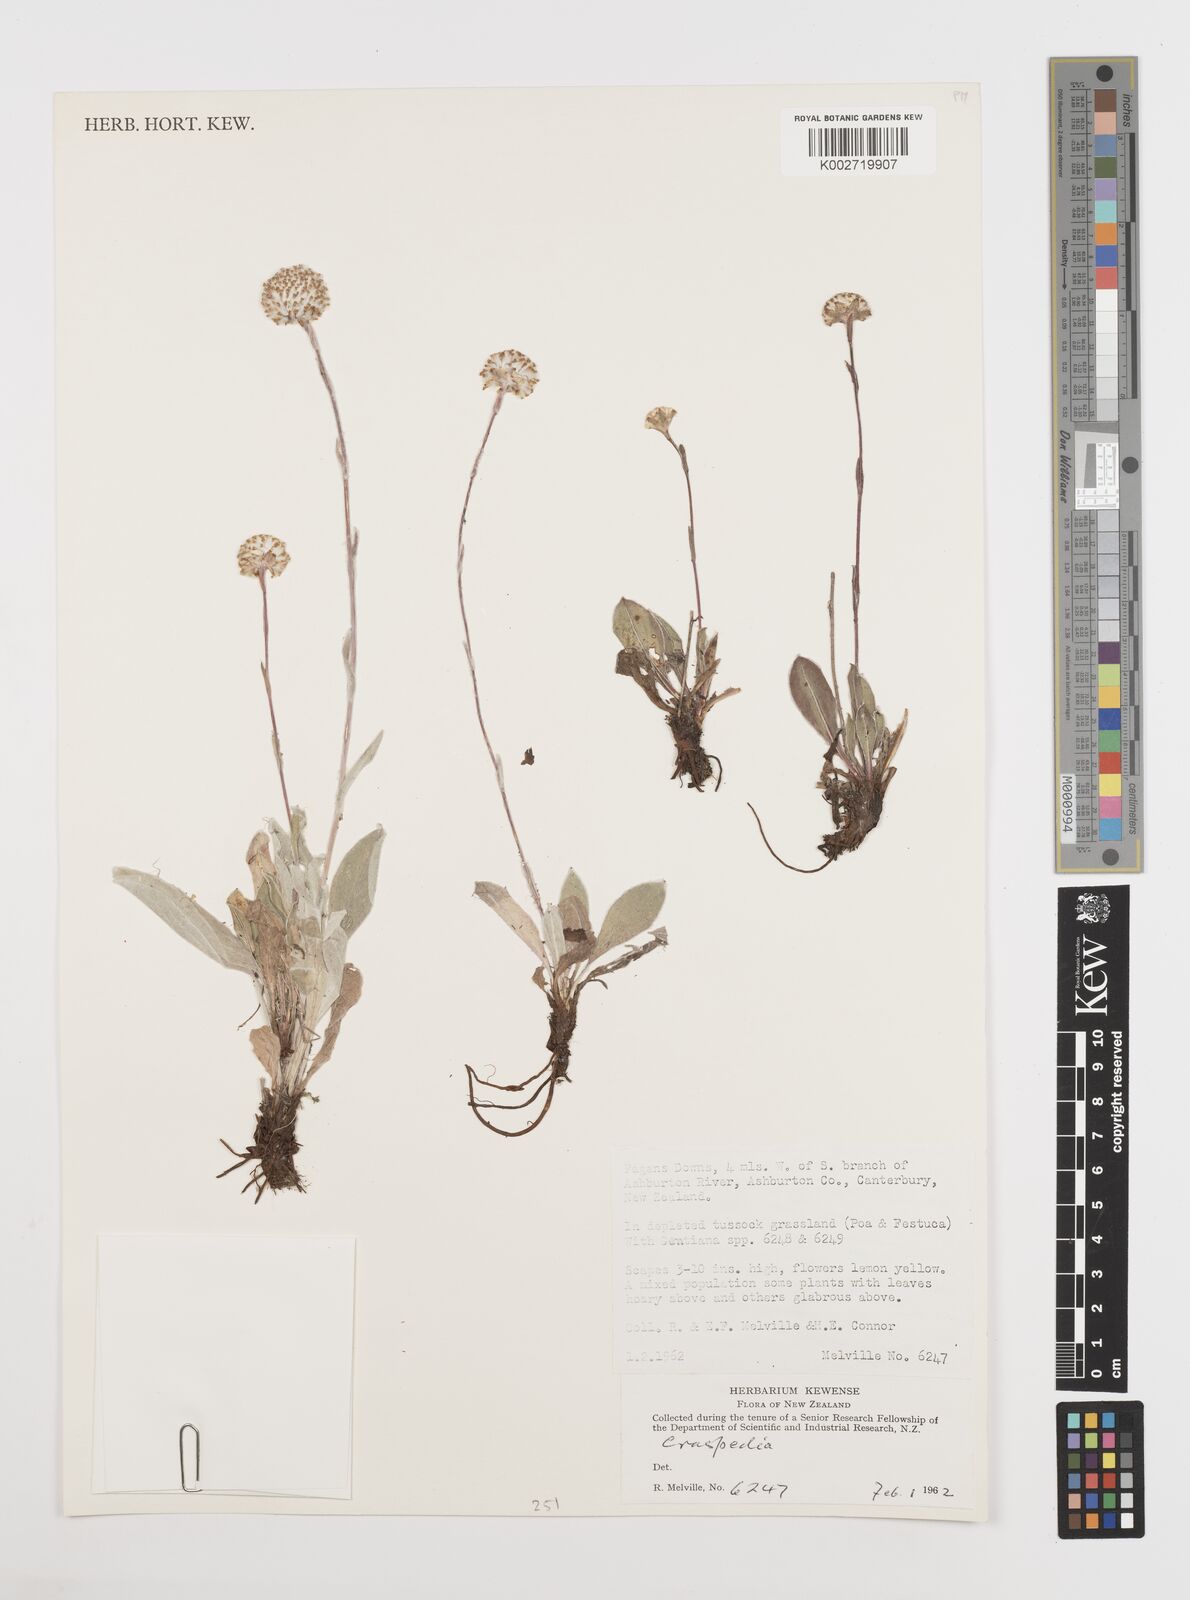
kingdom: Plantae
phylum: Tracheophyta
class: Magnoliopsida
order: Asterales
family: Asteraceae
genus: Craspedia
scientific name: Craspedia
